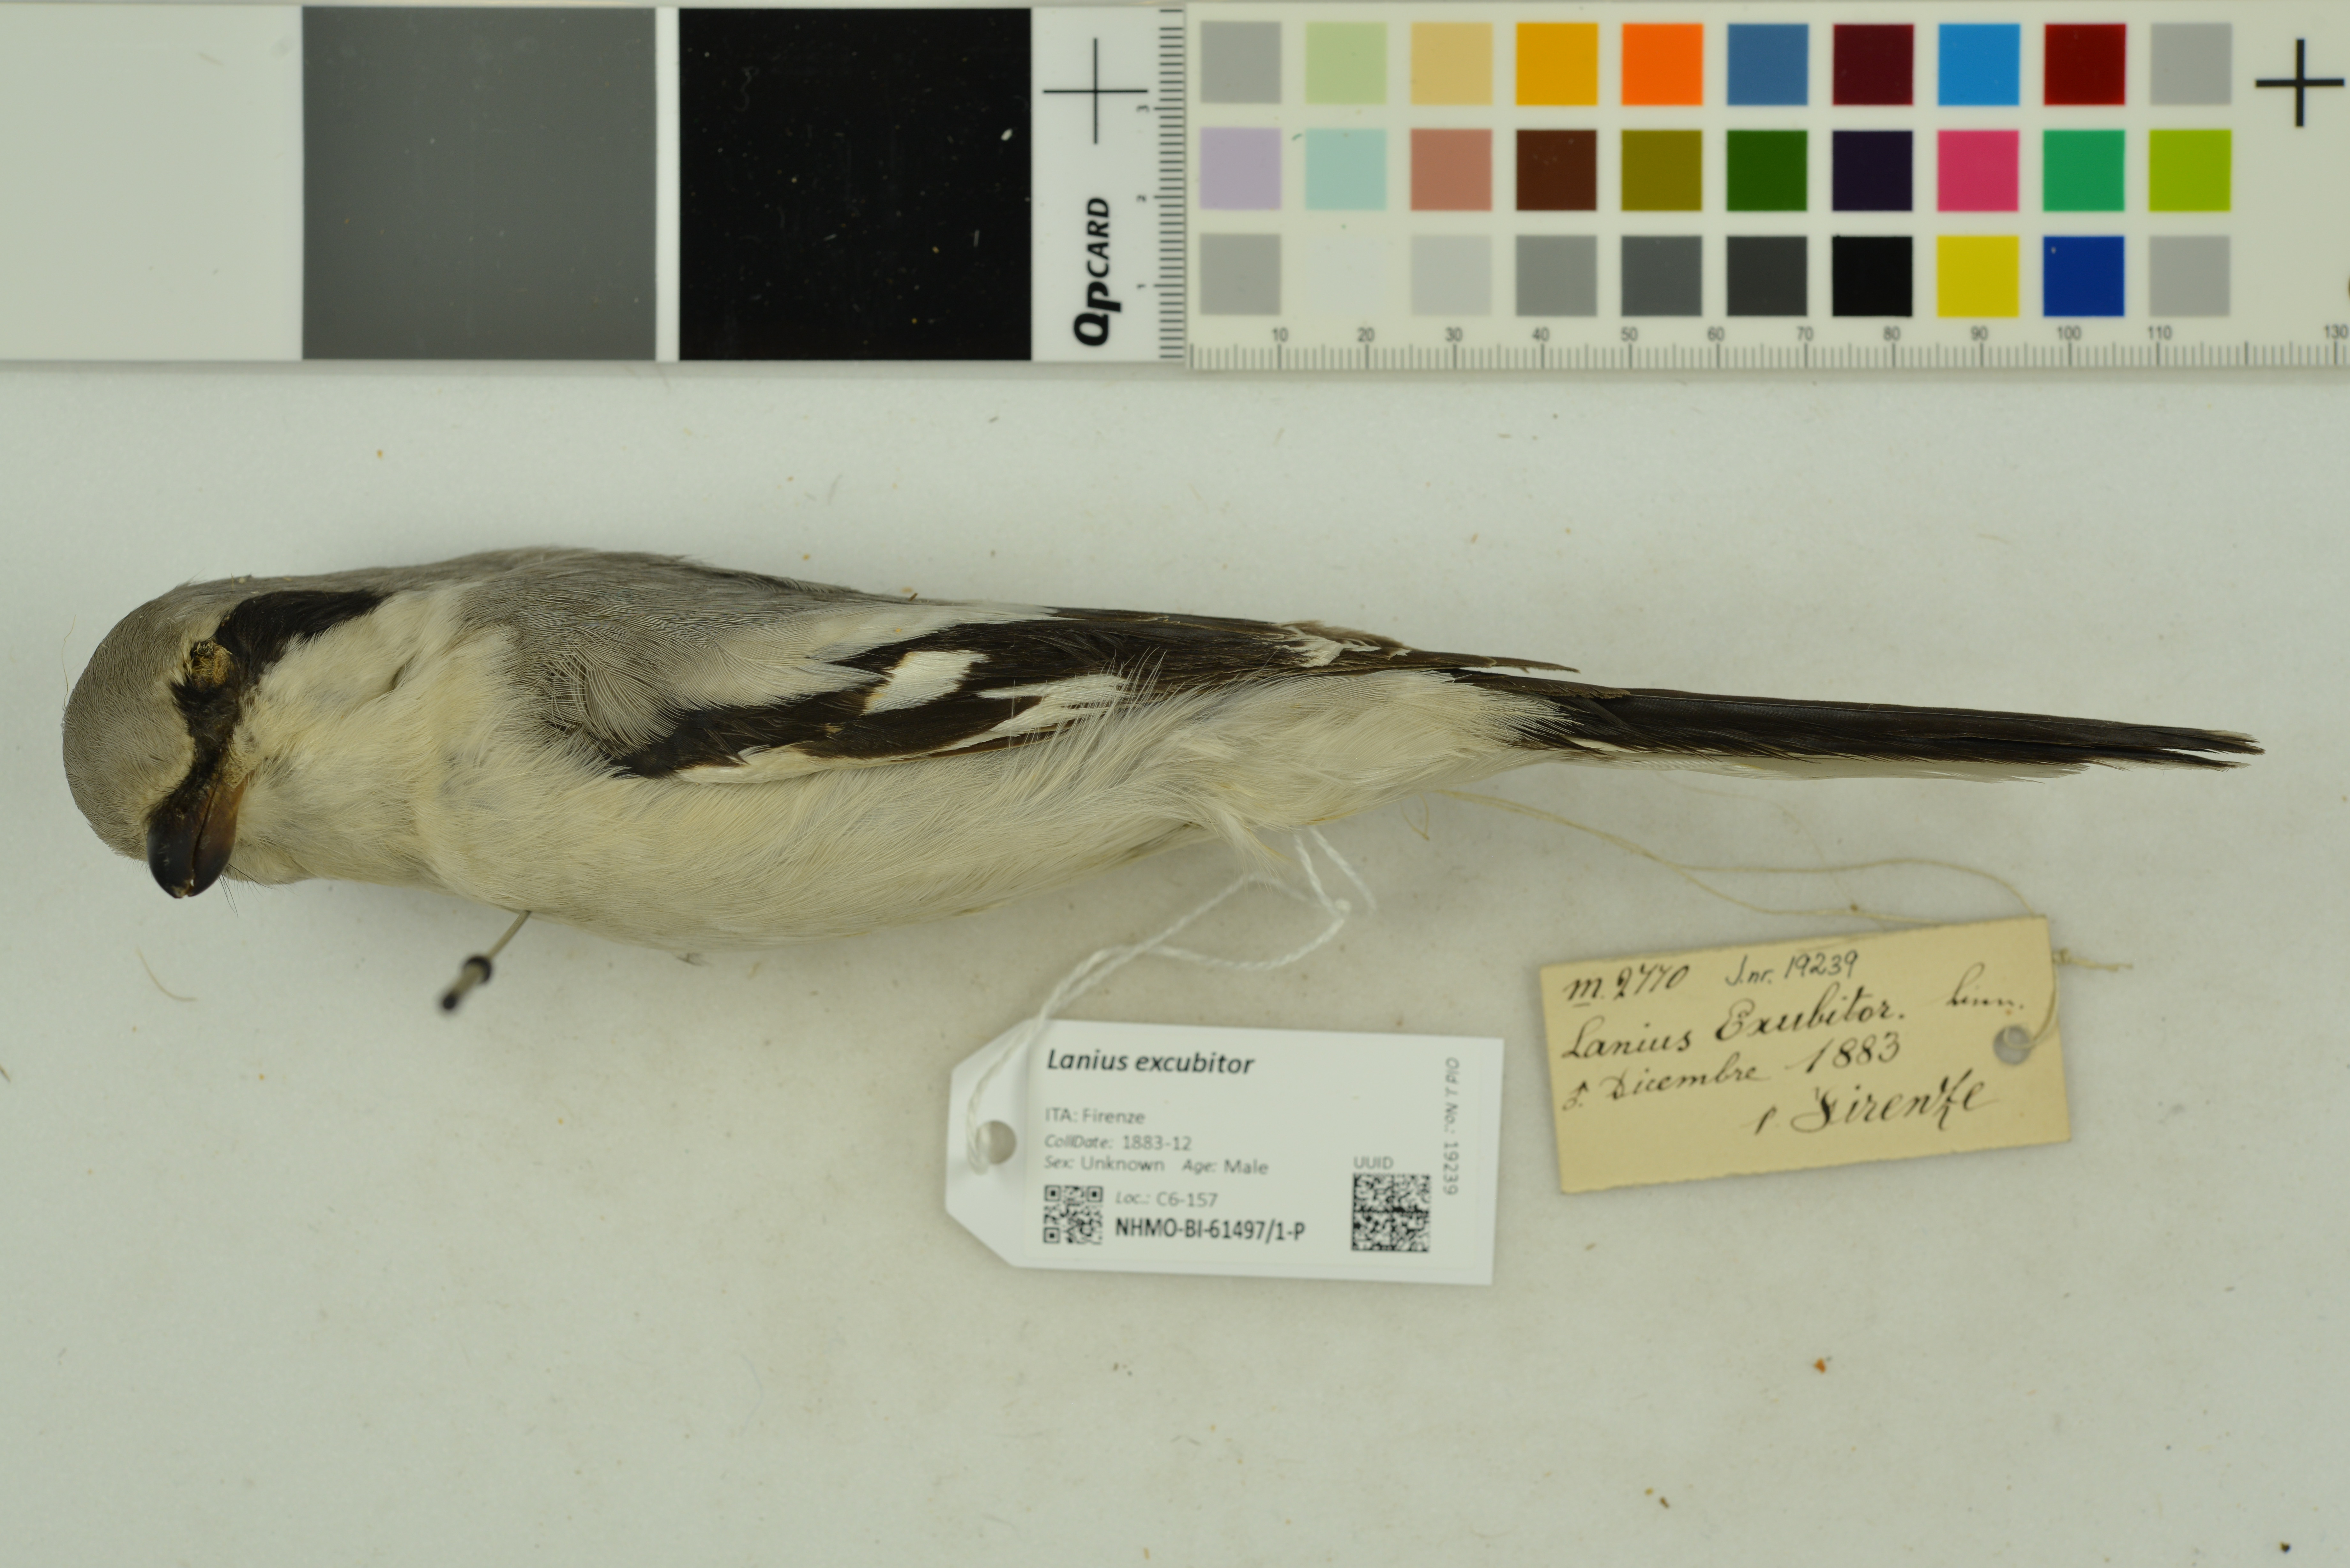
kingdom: Animalia
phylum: Chordata
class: Aves
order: Passeriformes
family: Laniidae
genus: Lanius
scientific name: Lanius excubitor
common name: Great grey shrike
